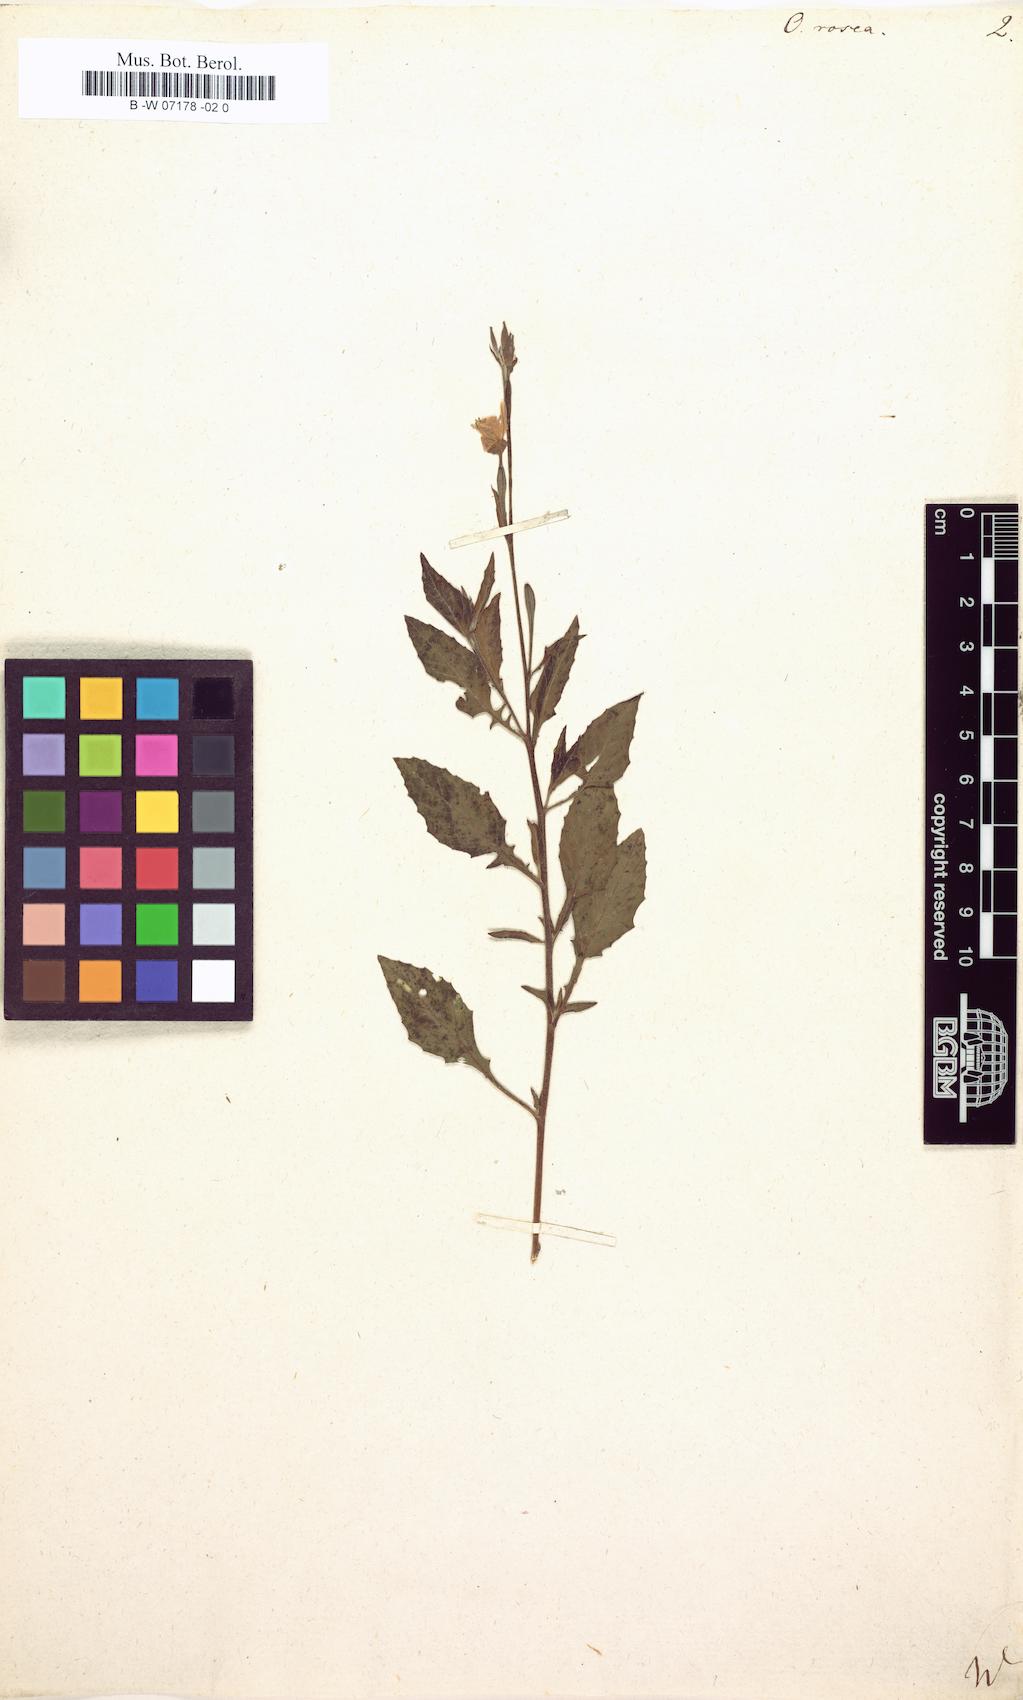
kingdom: Plantae
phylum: Tracheophyta
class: Magnoliopsida
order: Myrtales
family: Onagraceae
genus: Oenothera
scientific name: Oenothera rosea
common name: Rosy evening-primrose
